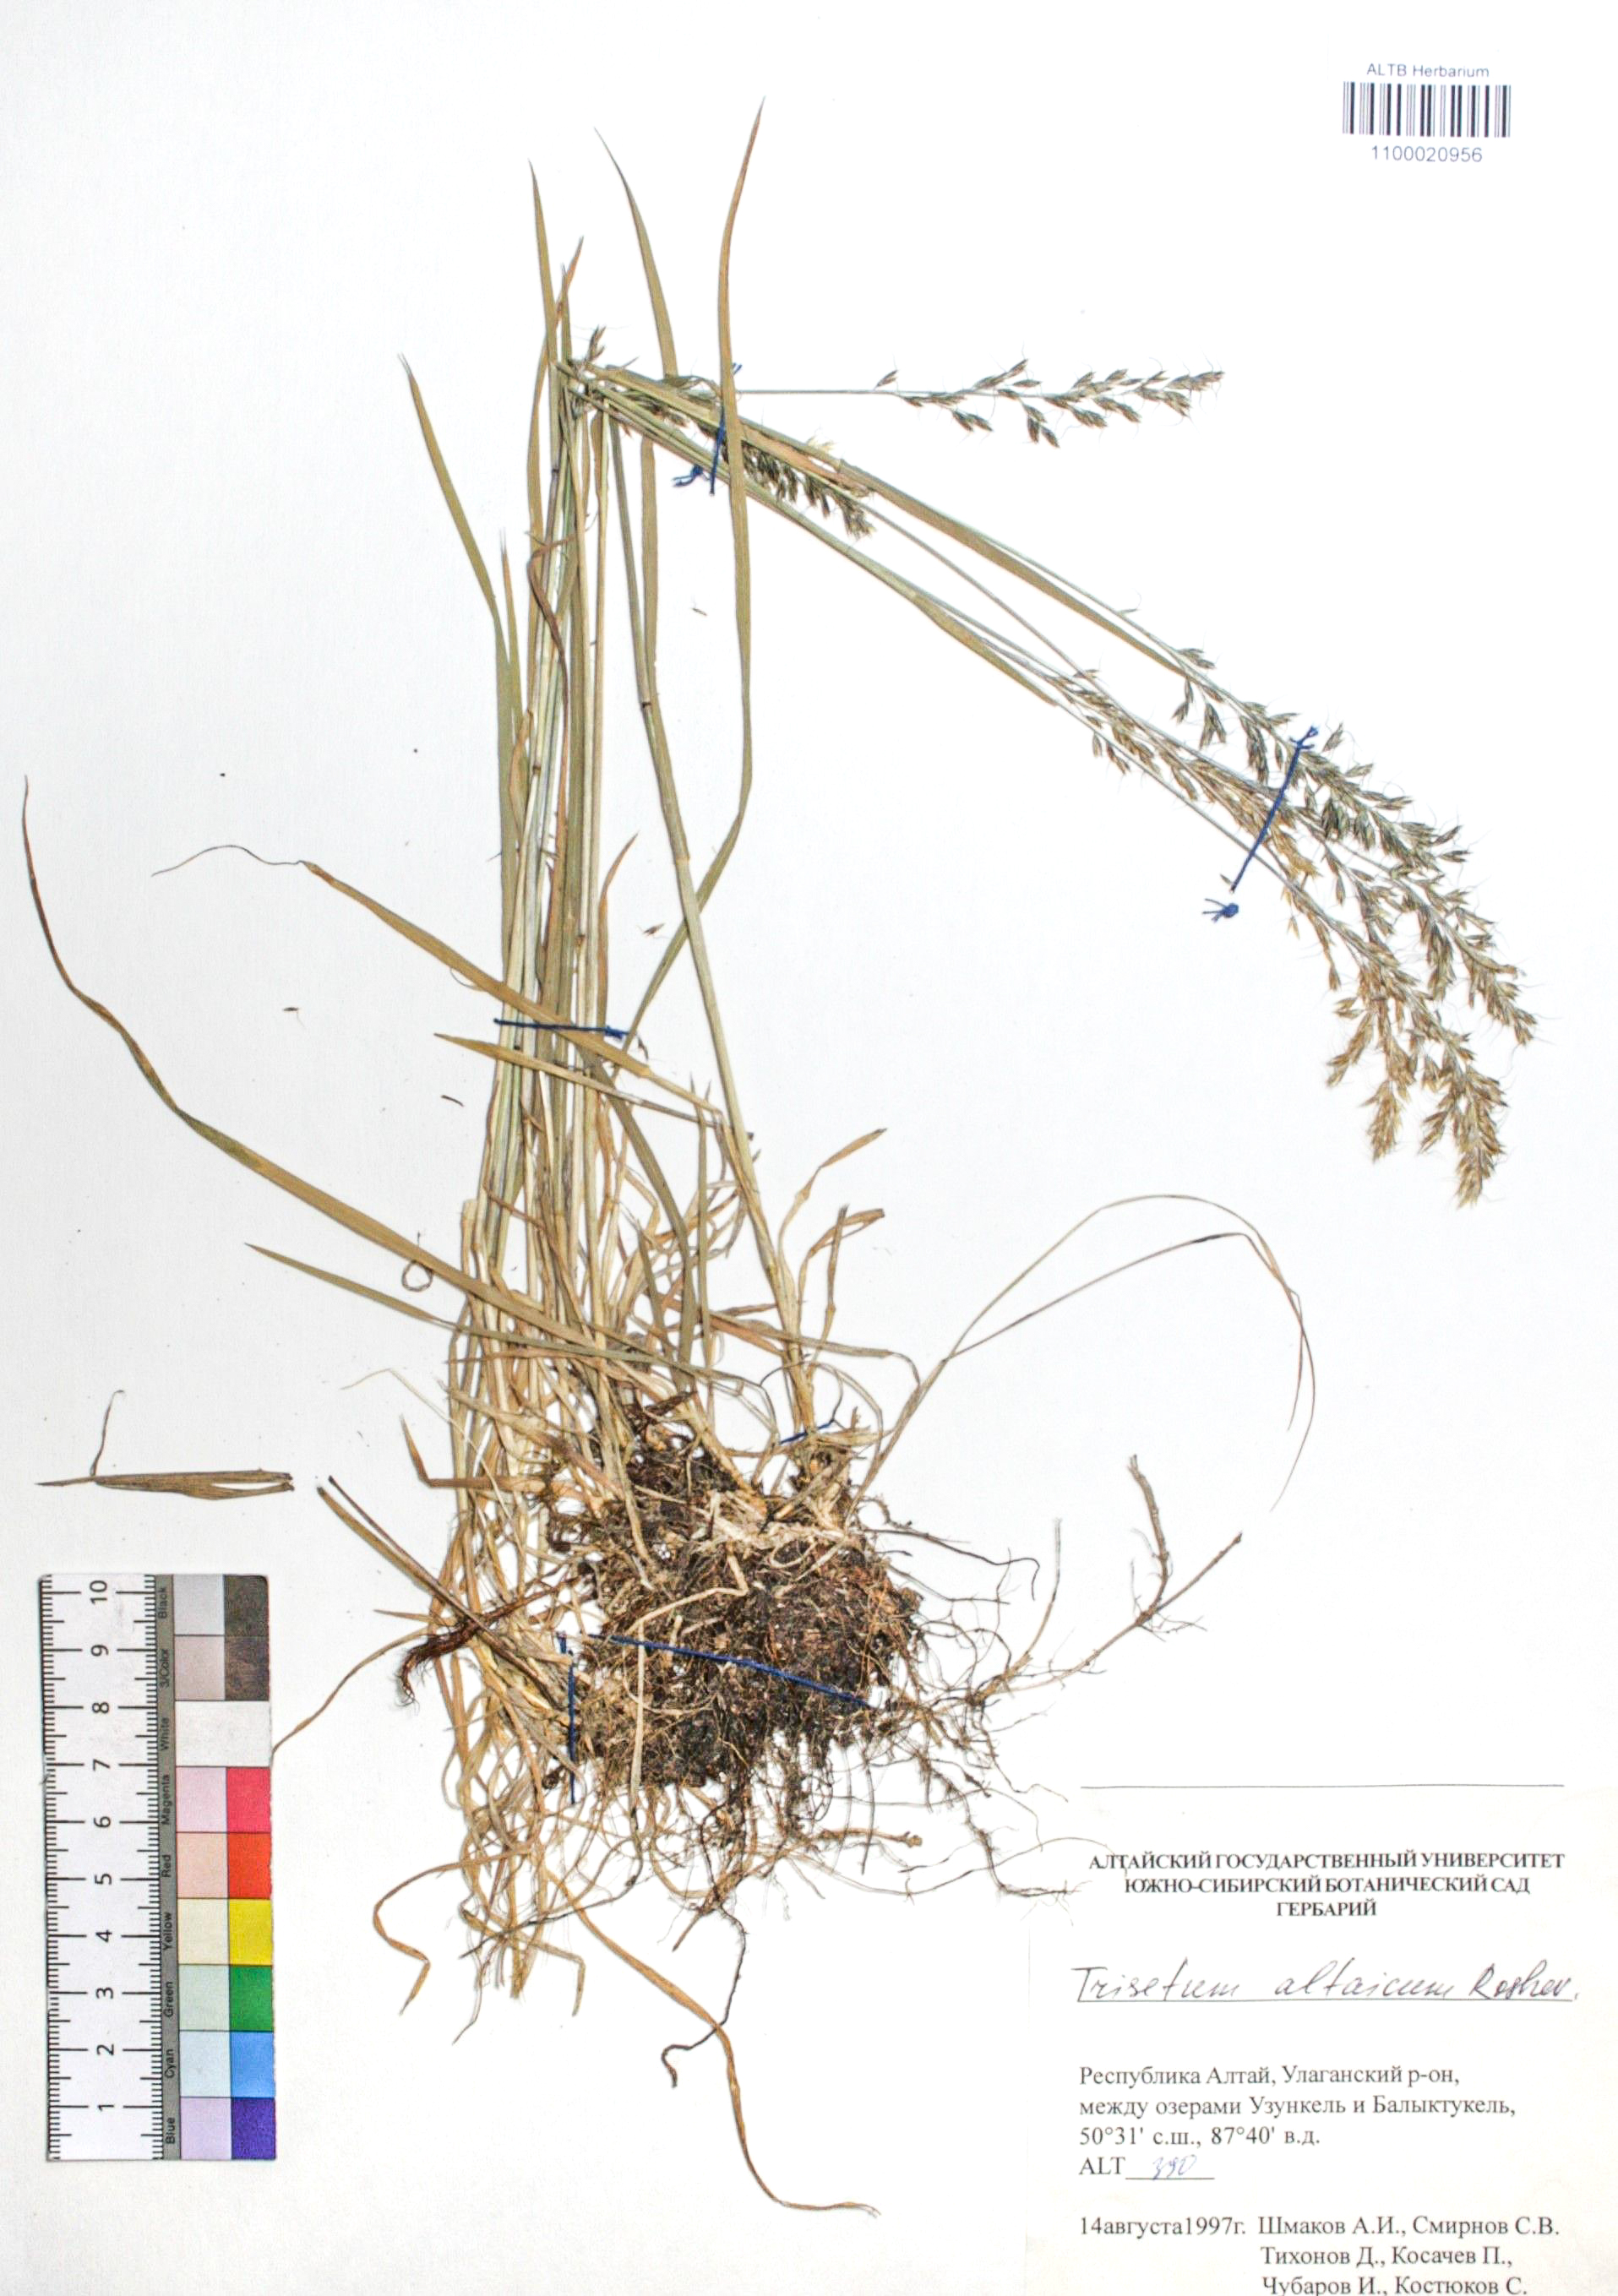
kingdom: Plantae
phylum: Tracheophyta
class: Liliopsida
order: Poales
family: Poaceae
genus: Trisetum
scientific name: Trisetum altaicum
